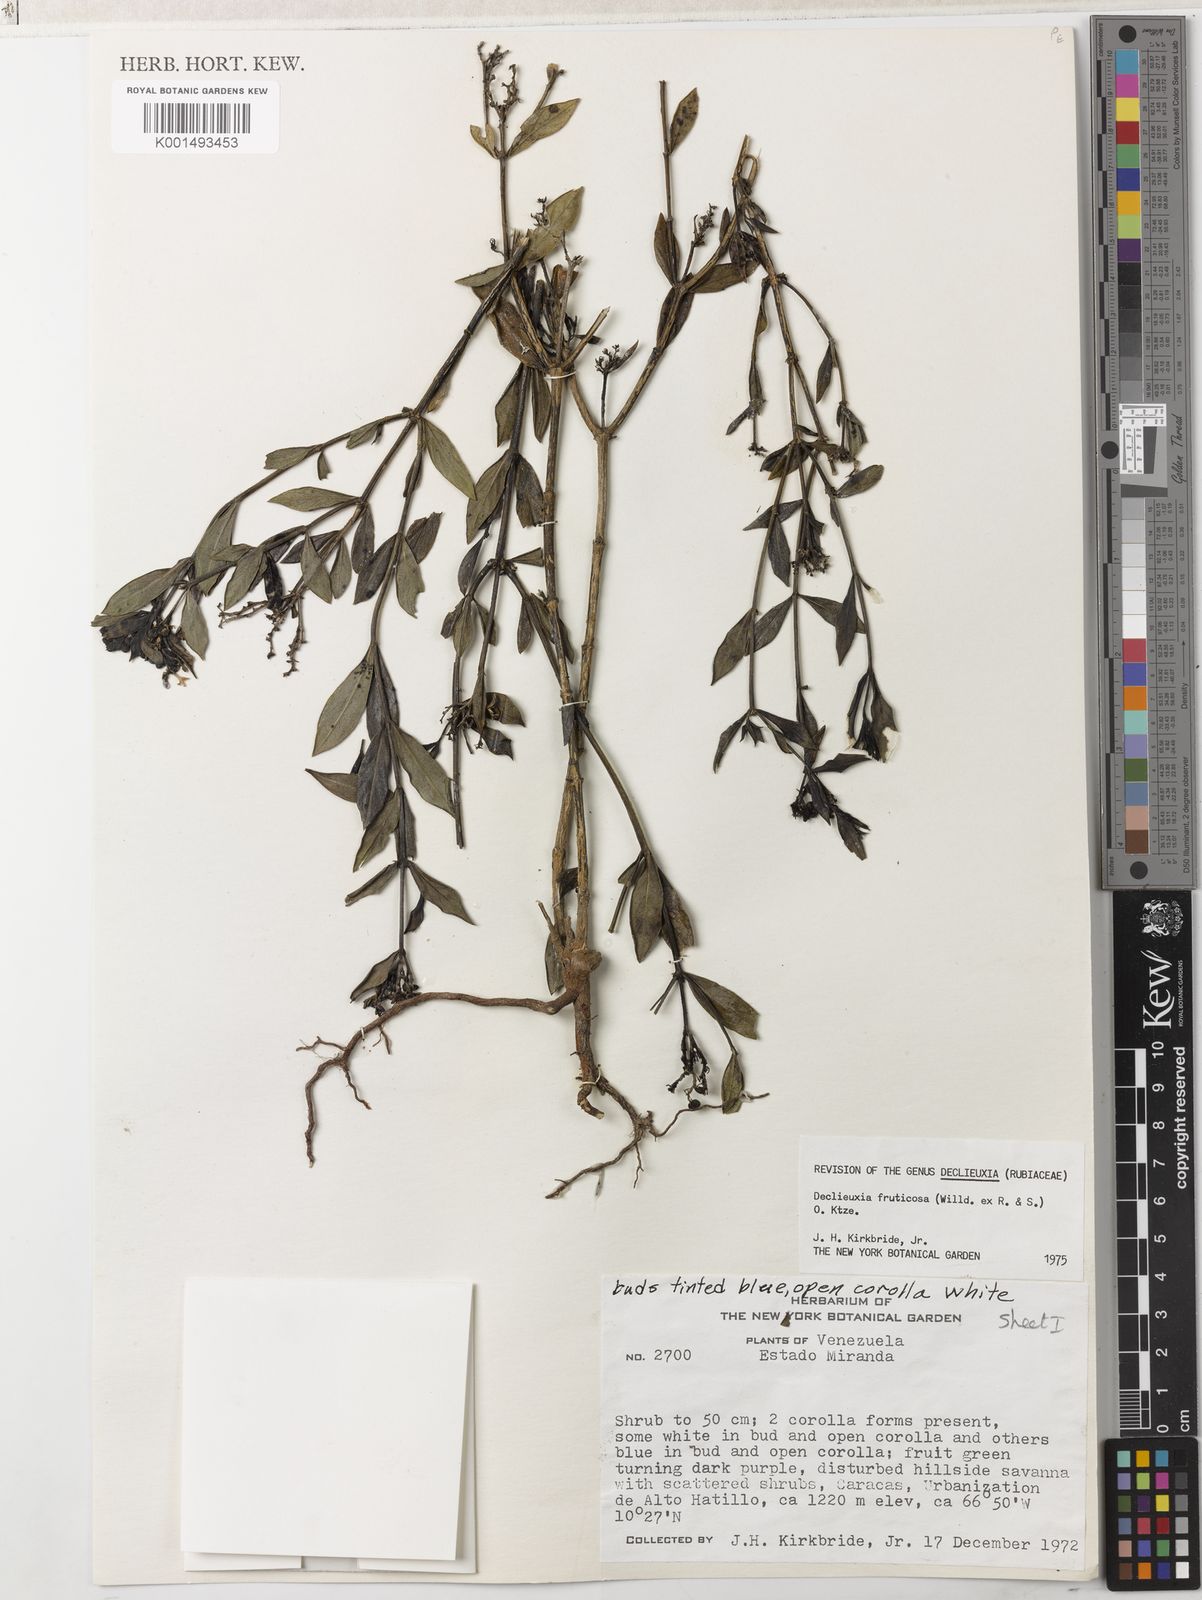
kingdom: Plantae
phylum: Tracheophyta
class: Magnoliopsida
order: Gentianales
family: Rubiaceae
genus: Declieuxia
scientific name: Declieuxia fruticosa
